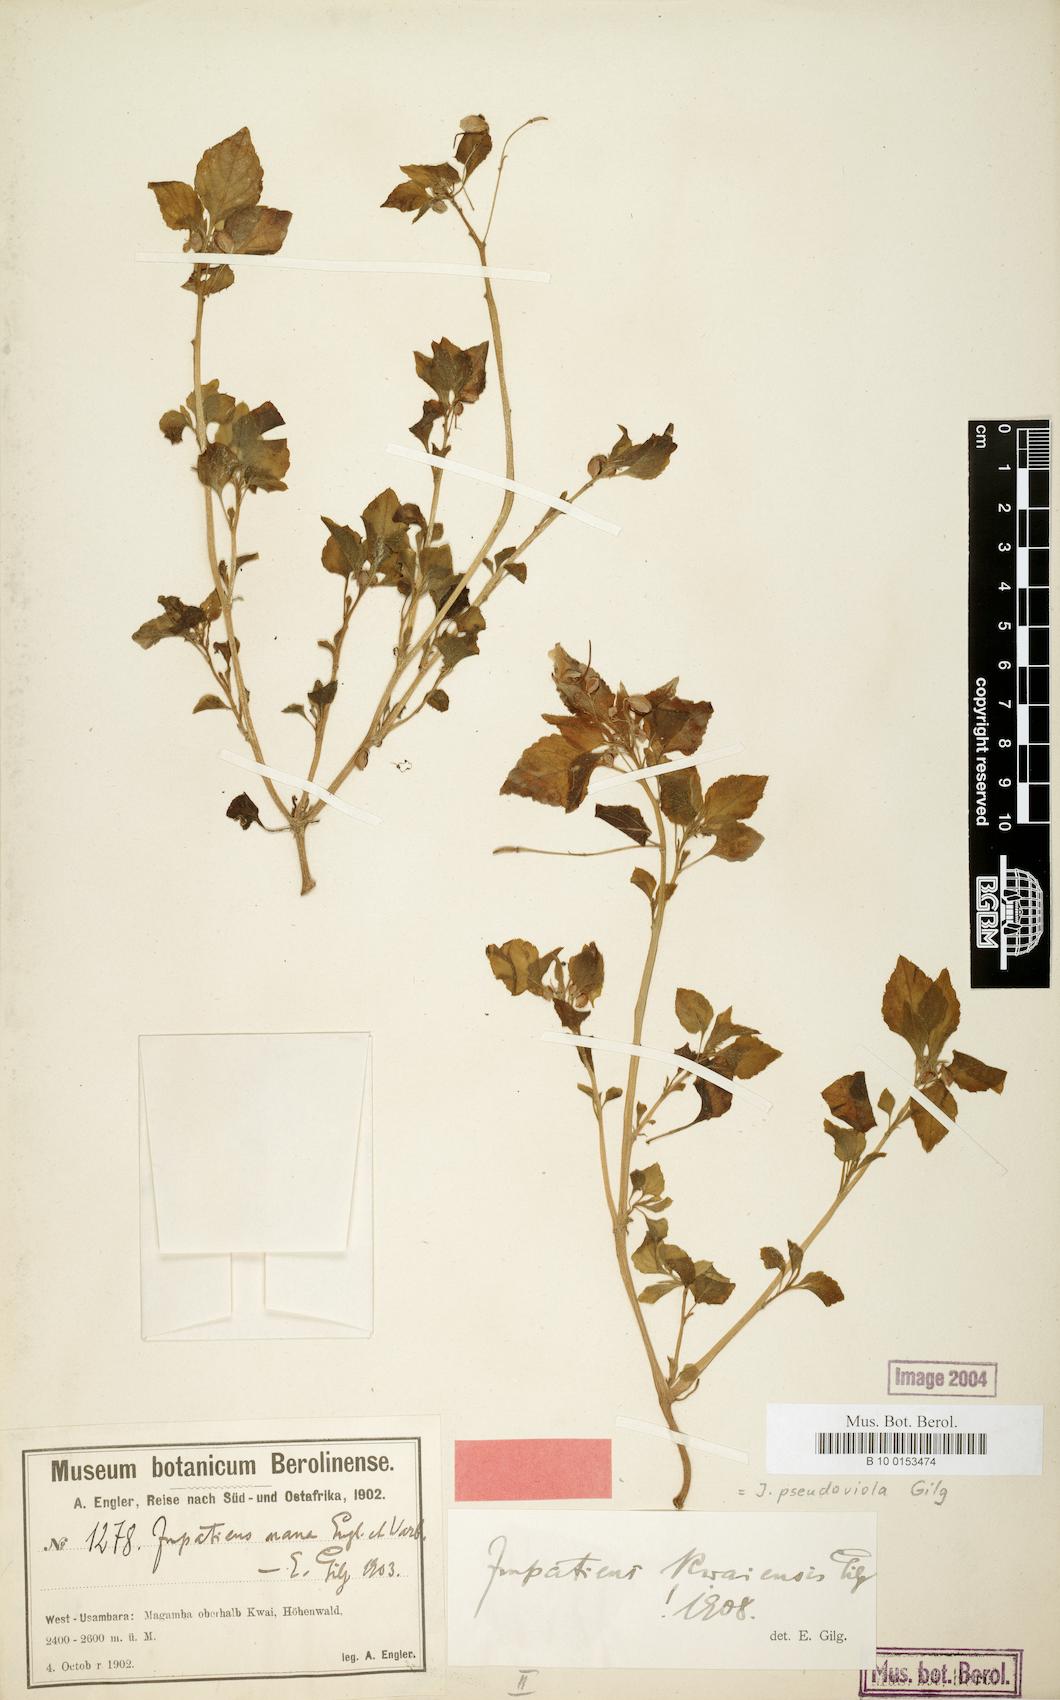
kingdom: Plantae
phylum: Tracheophyta
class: Magnoliopsida
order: Ericales
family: Balsaminaceae
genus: Impatiens
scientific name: Impatiens pseudoviola
